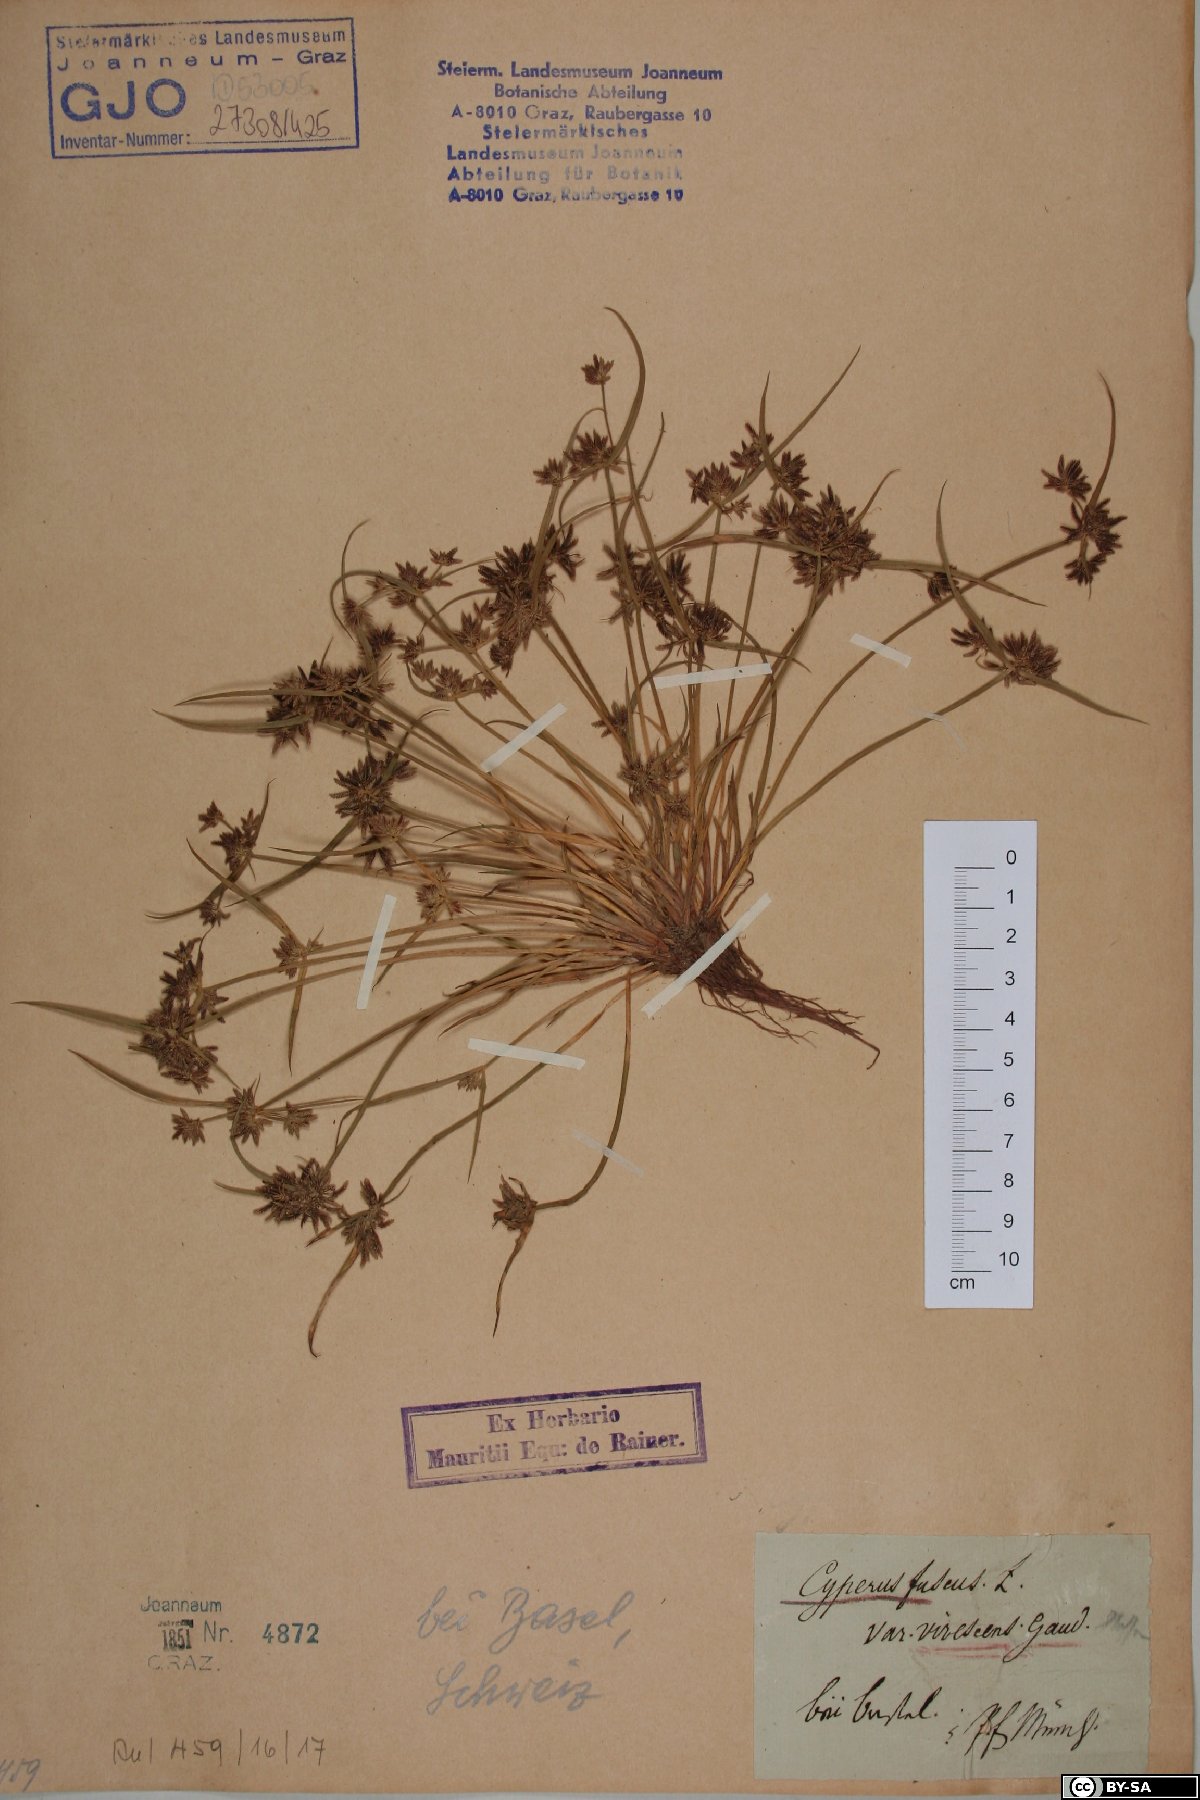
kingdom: Plantae
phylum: Tracheophyta
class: Liliopsida
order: Poales
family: Cyperaceae
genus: Cyperus
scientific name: Cyperus fuscus
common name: Brown galingale
